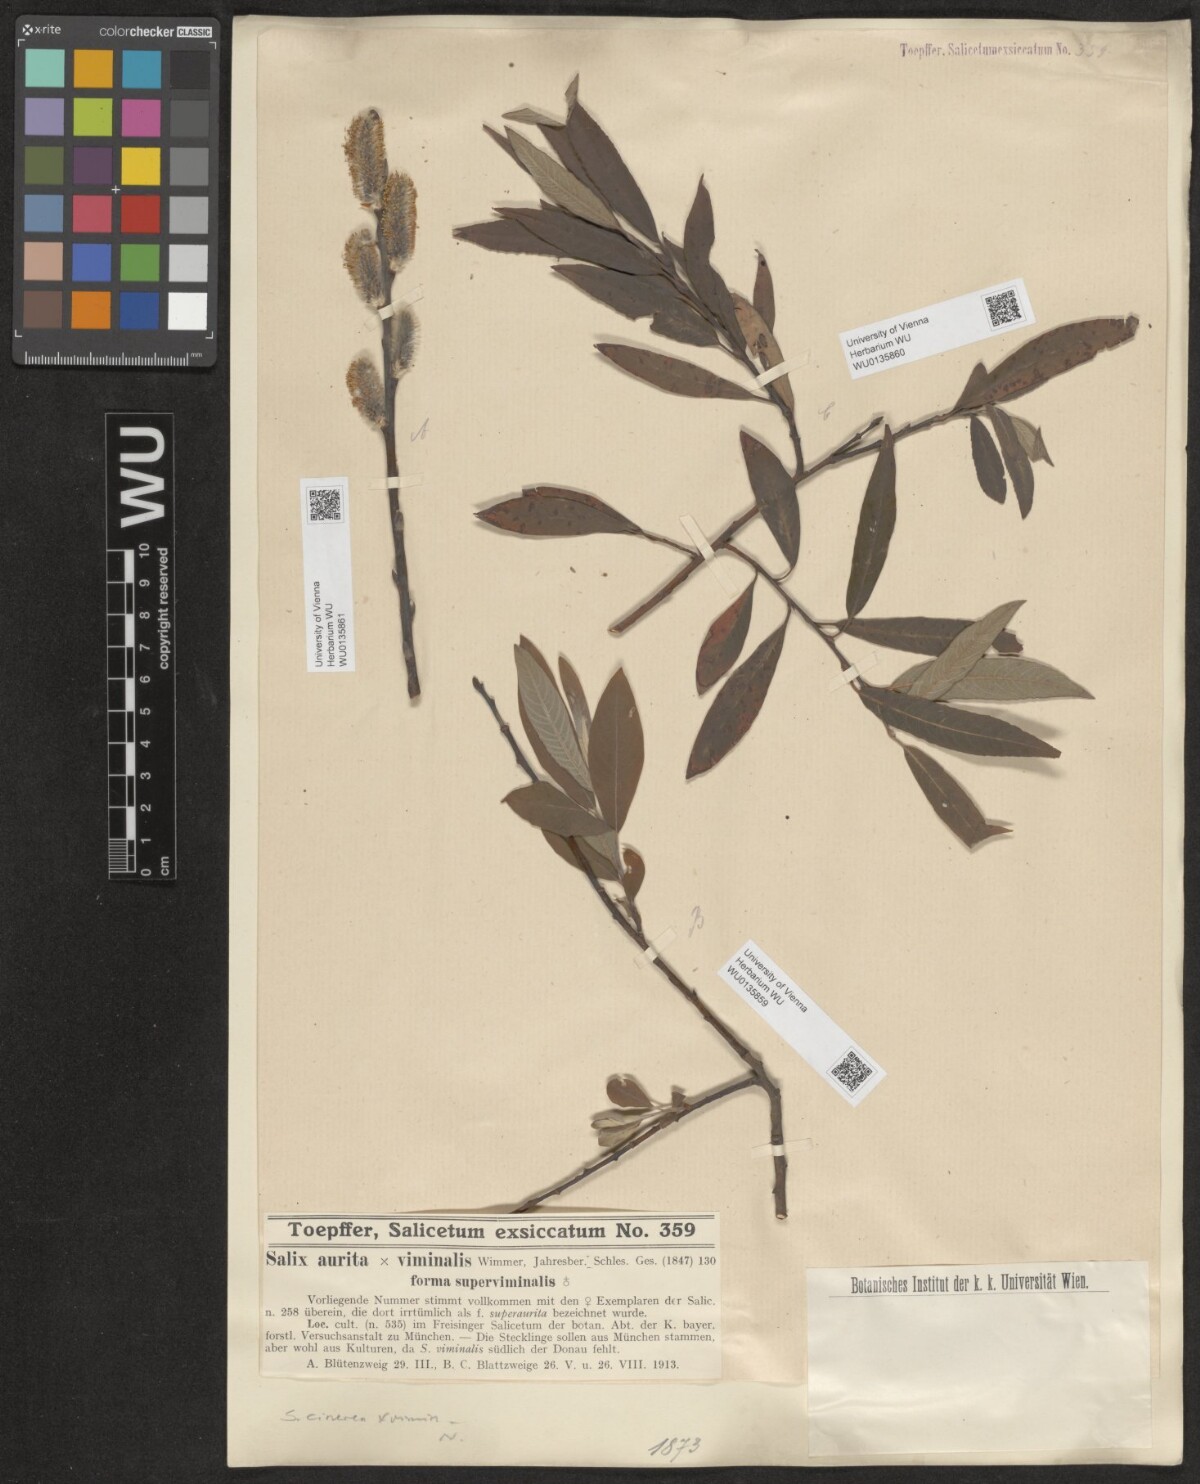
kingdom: Plantae
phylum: Tracheophyta
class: Magnoliopsida
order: Malpighiales
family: Salicaceae
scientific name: Salicaceae
